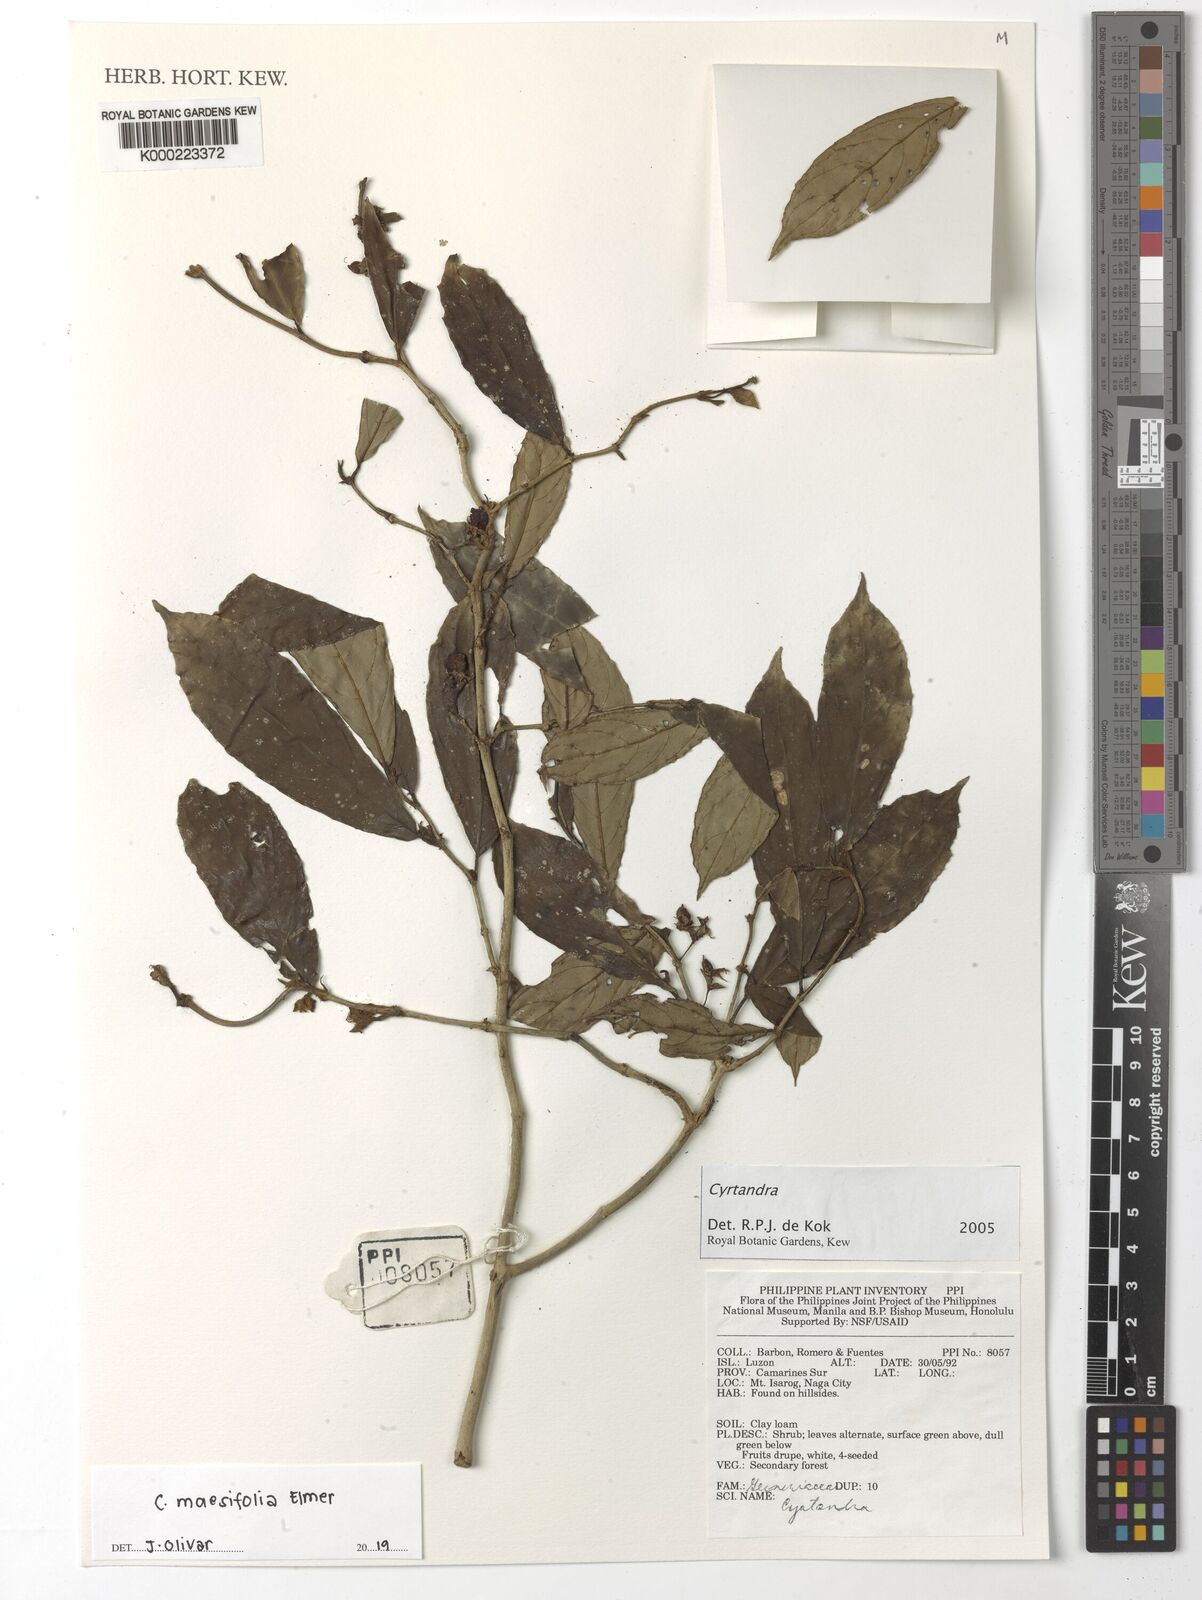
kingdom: Plantae
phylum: Tracheophyta
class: Magnoliopsida
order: Lamiales
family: Gesneriaceae
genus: Cyrtandra
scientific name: Cyrtandra
